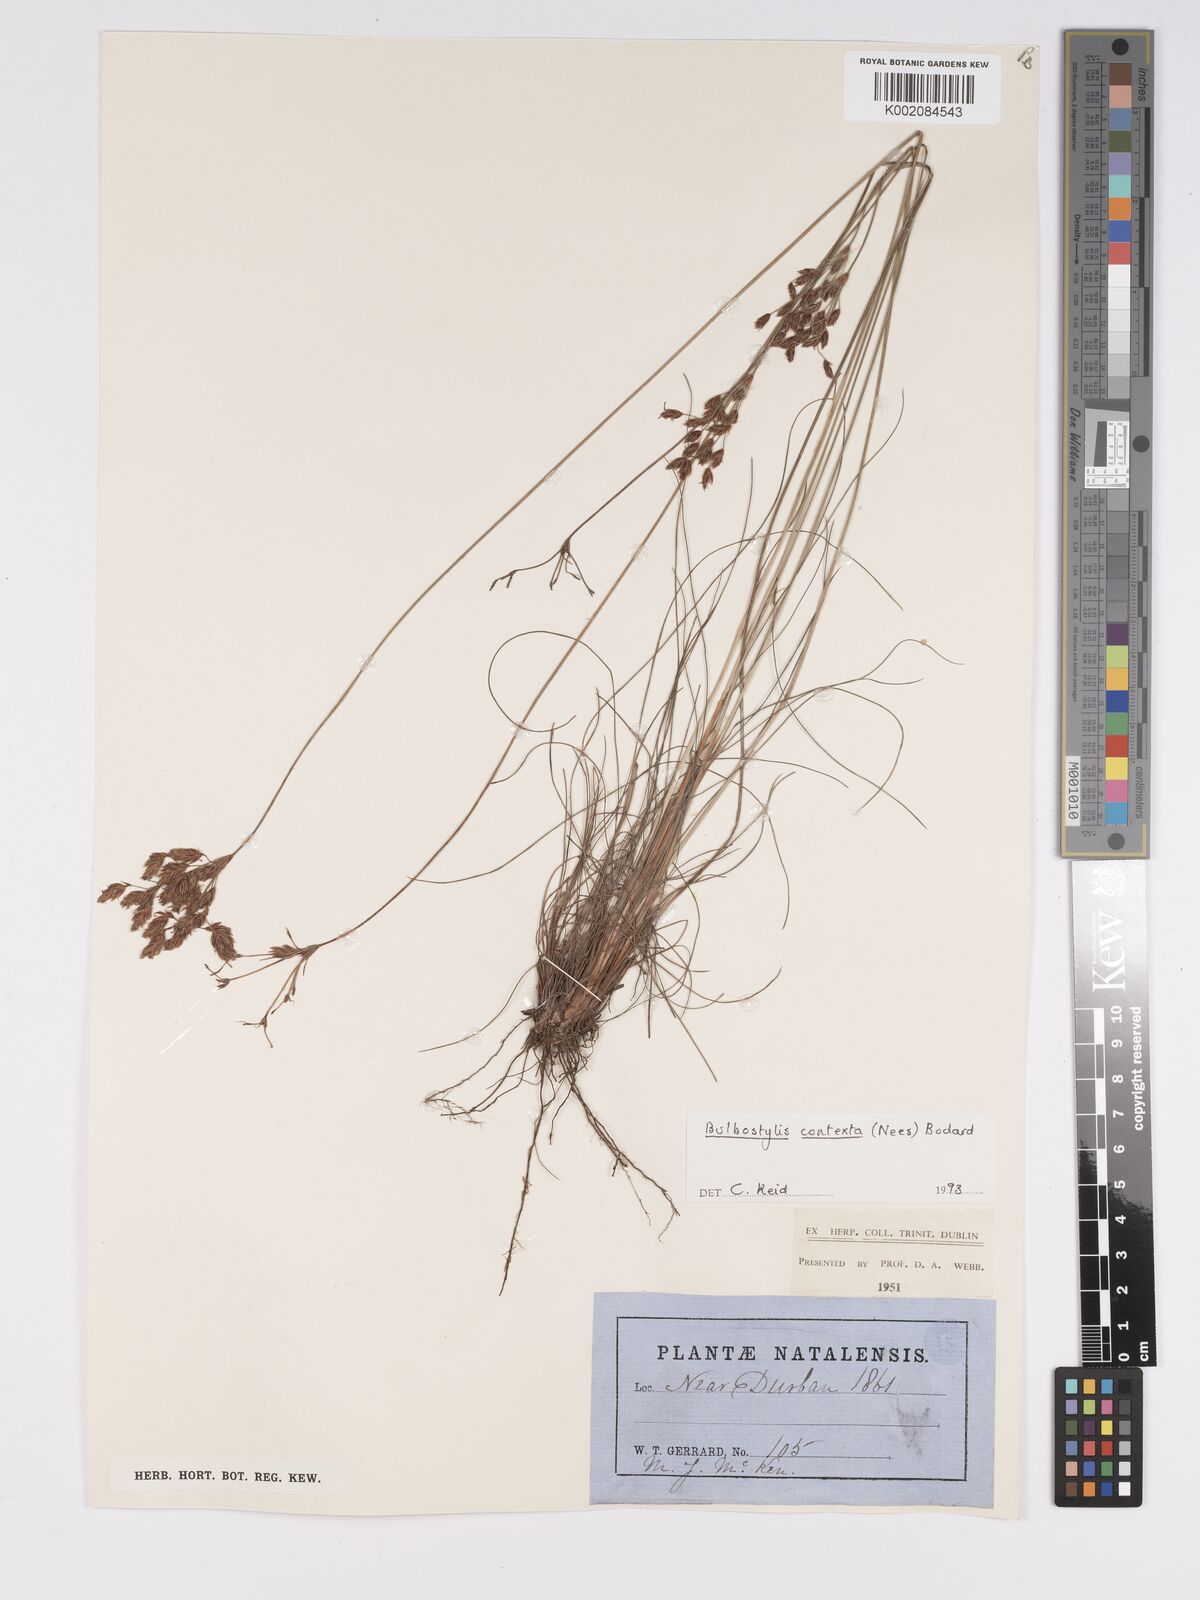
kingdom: Plantae
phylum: Tracheophyta
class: Liliopsida
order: Poales
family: Cyperaceae
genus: Bulbostylis
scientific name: Bulbostylis contexta
